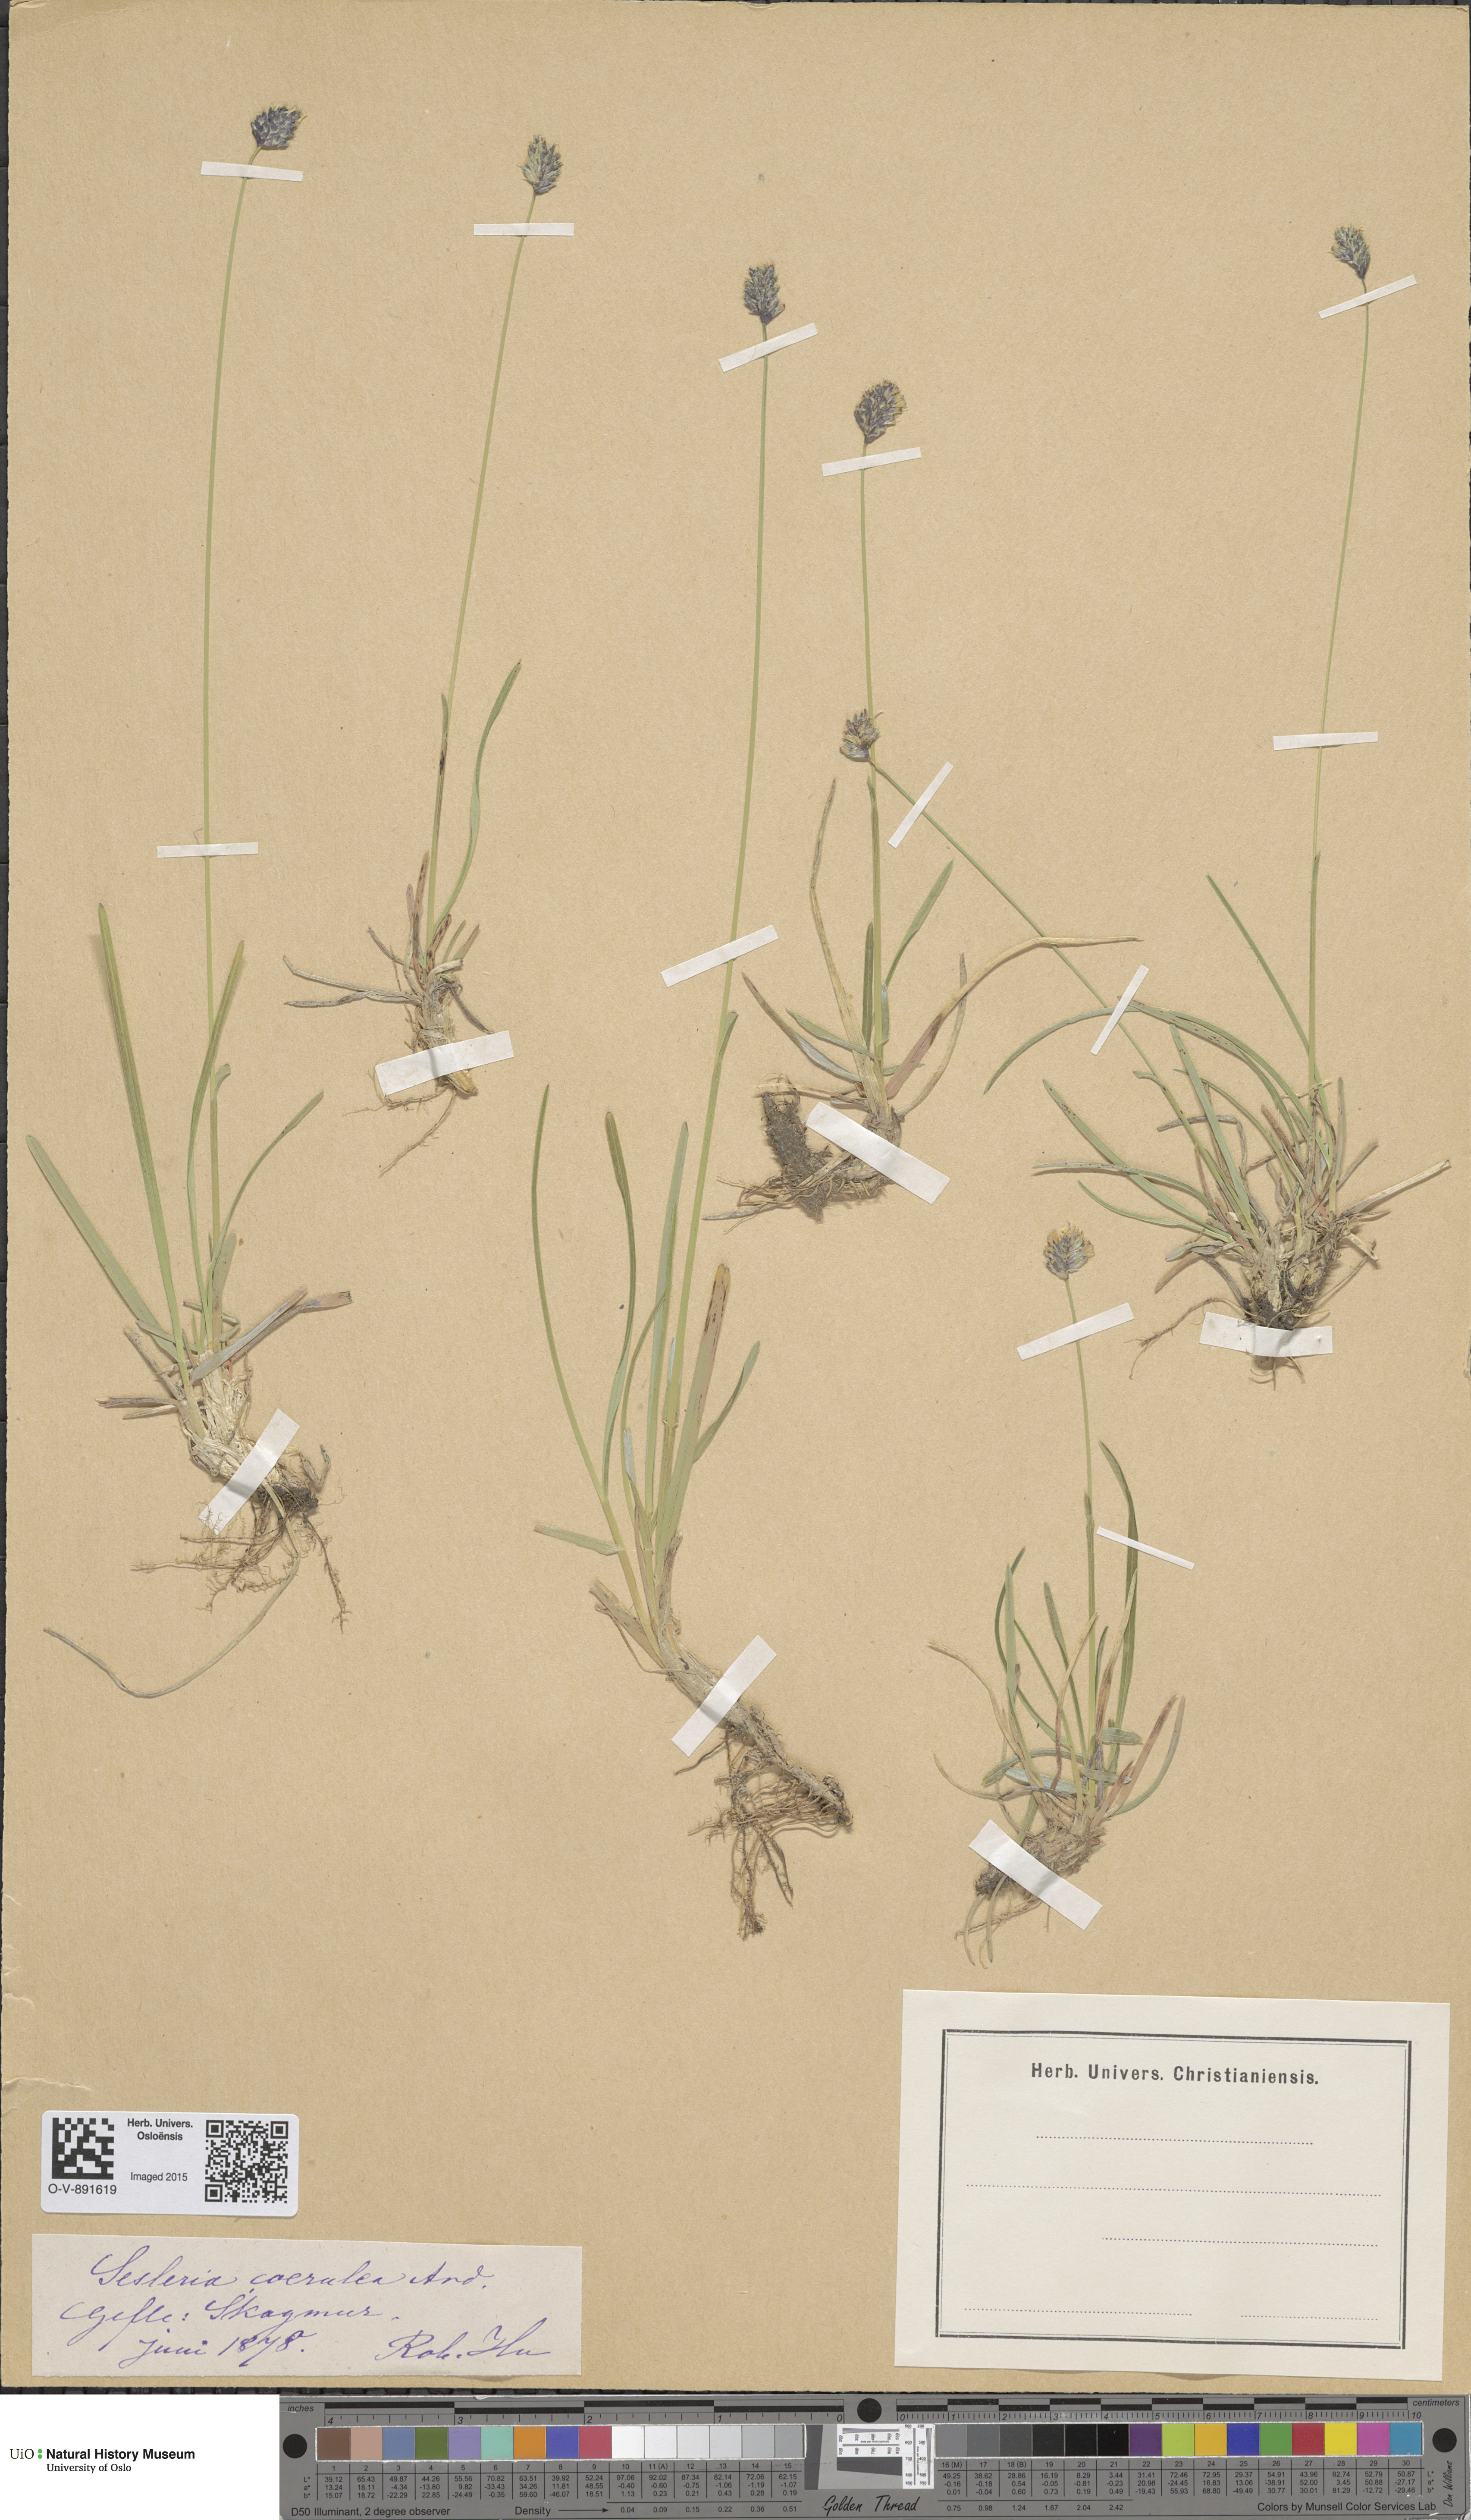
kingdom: Plantae
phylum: Tracheophyta
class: Liliopsida
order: Poales
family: Poaceae
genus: Sesleria
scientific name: Sesleria uliginosa
